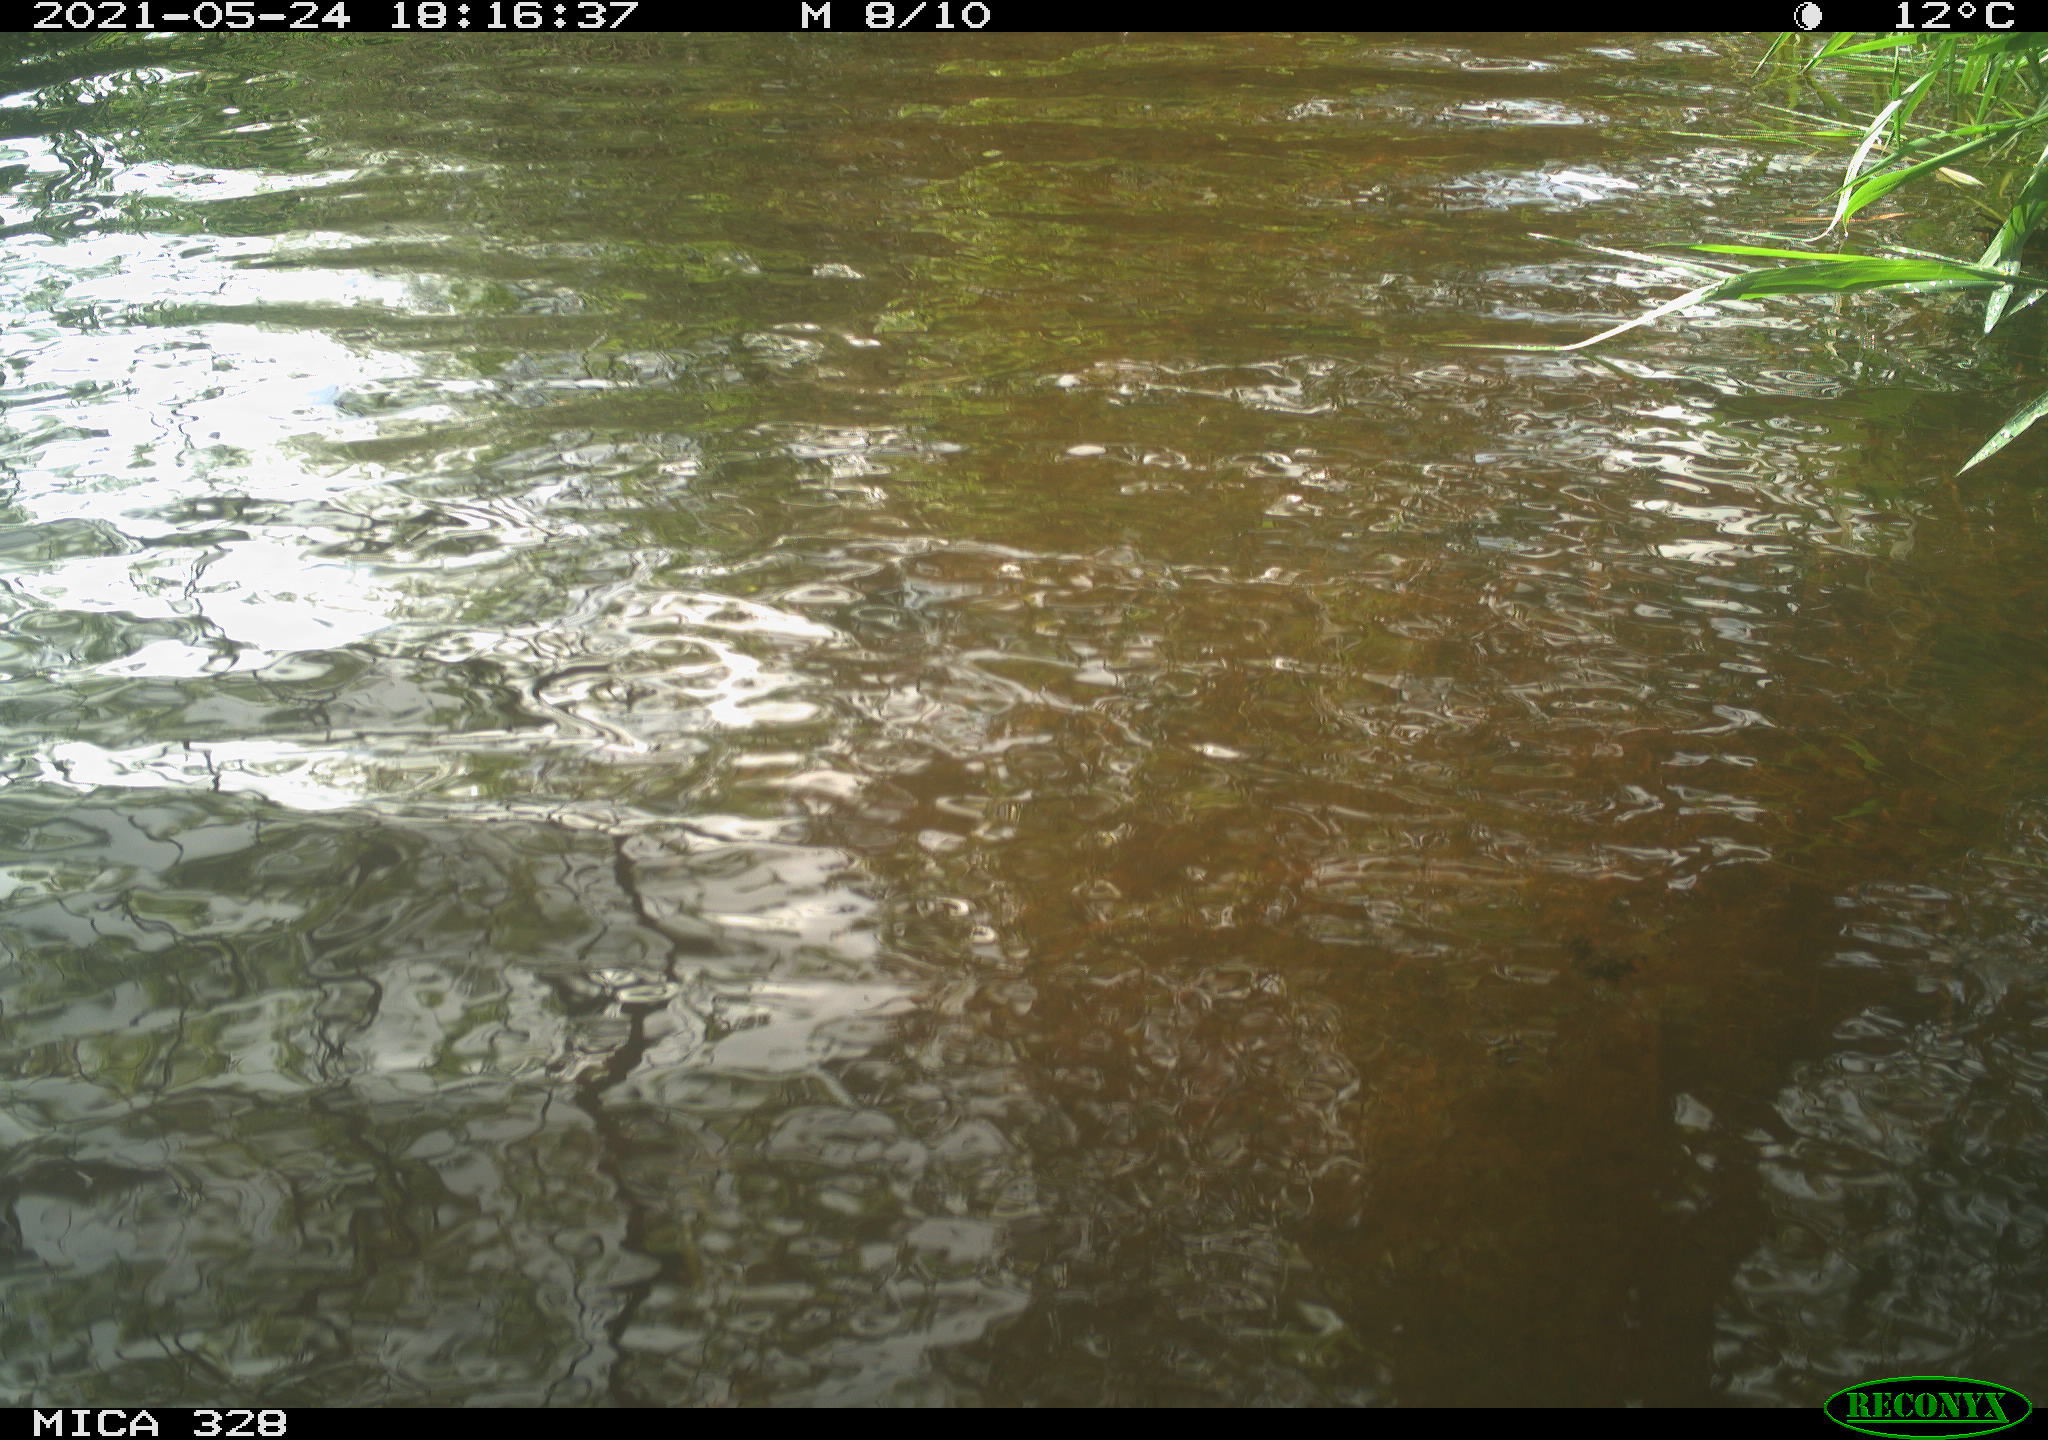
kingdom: Animalia
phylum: Chordata
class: Aves
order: Anseriformes
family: Anatidae
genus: Aix
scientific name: Aix galericulata
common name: Mandarin duck
